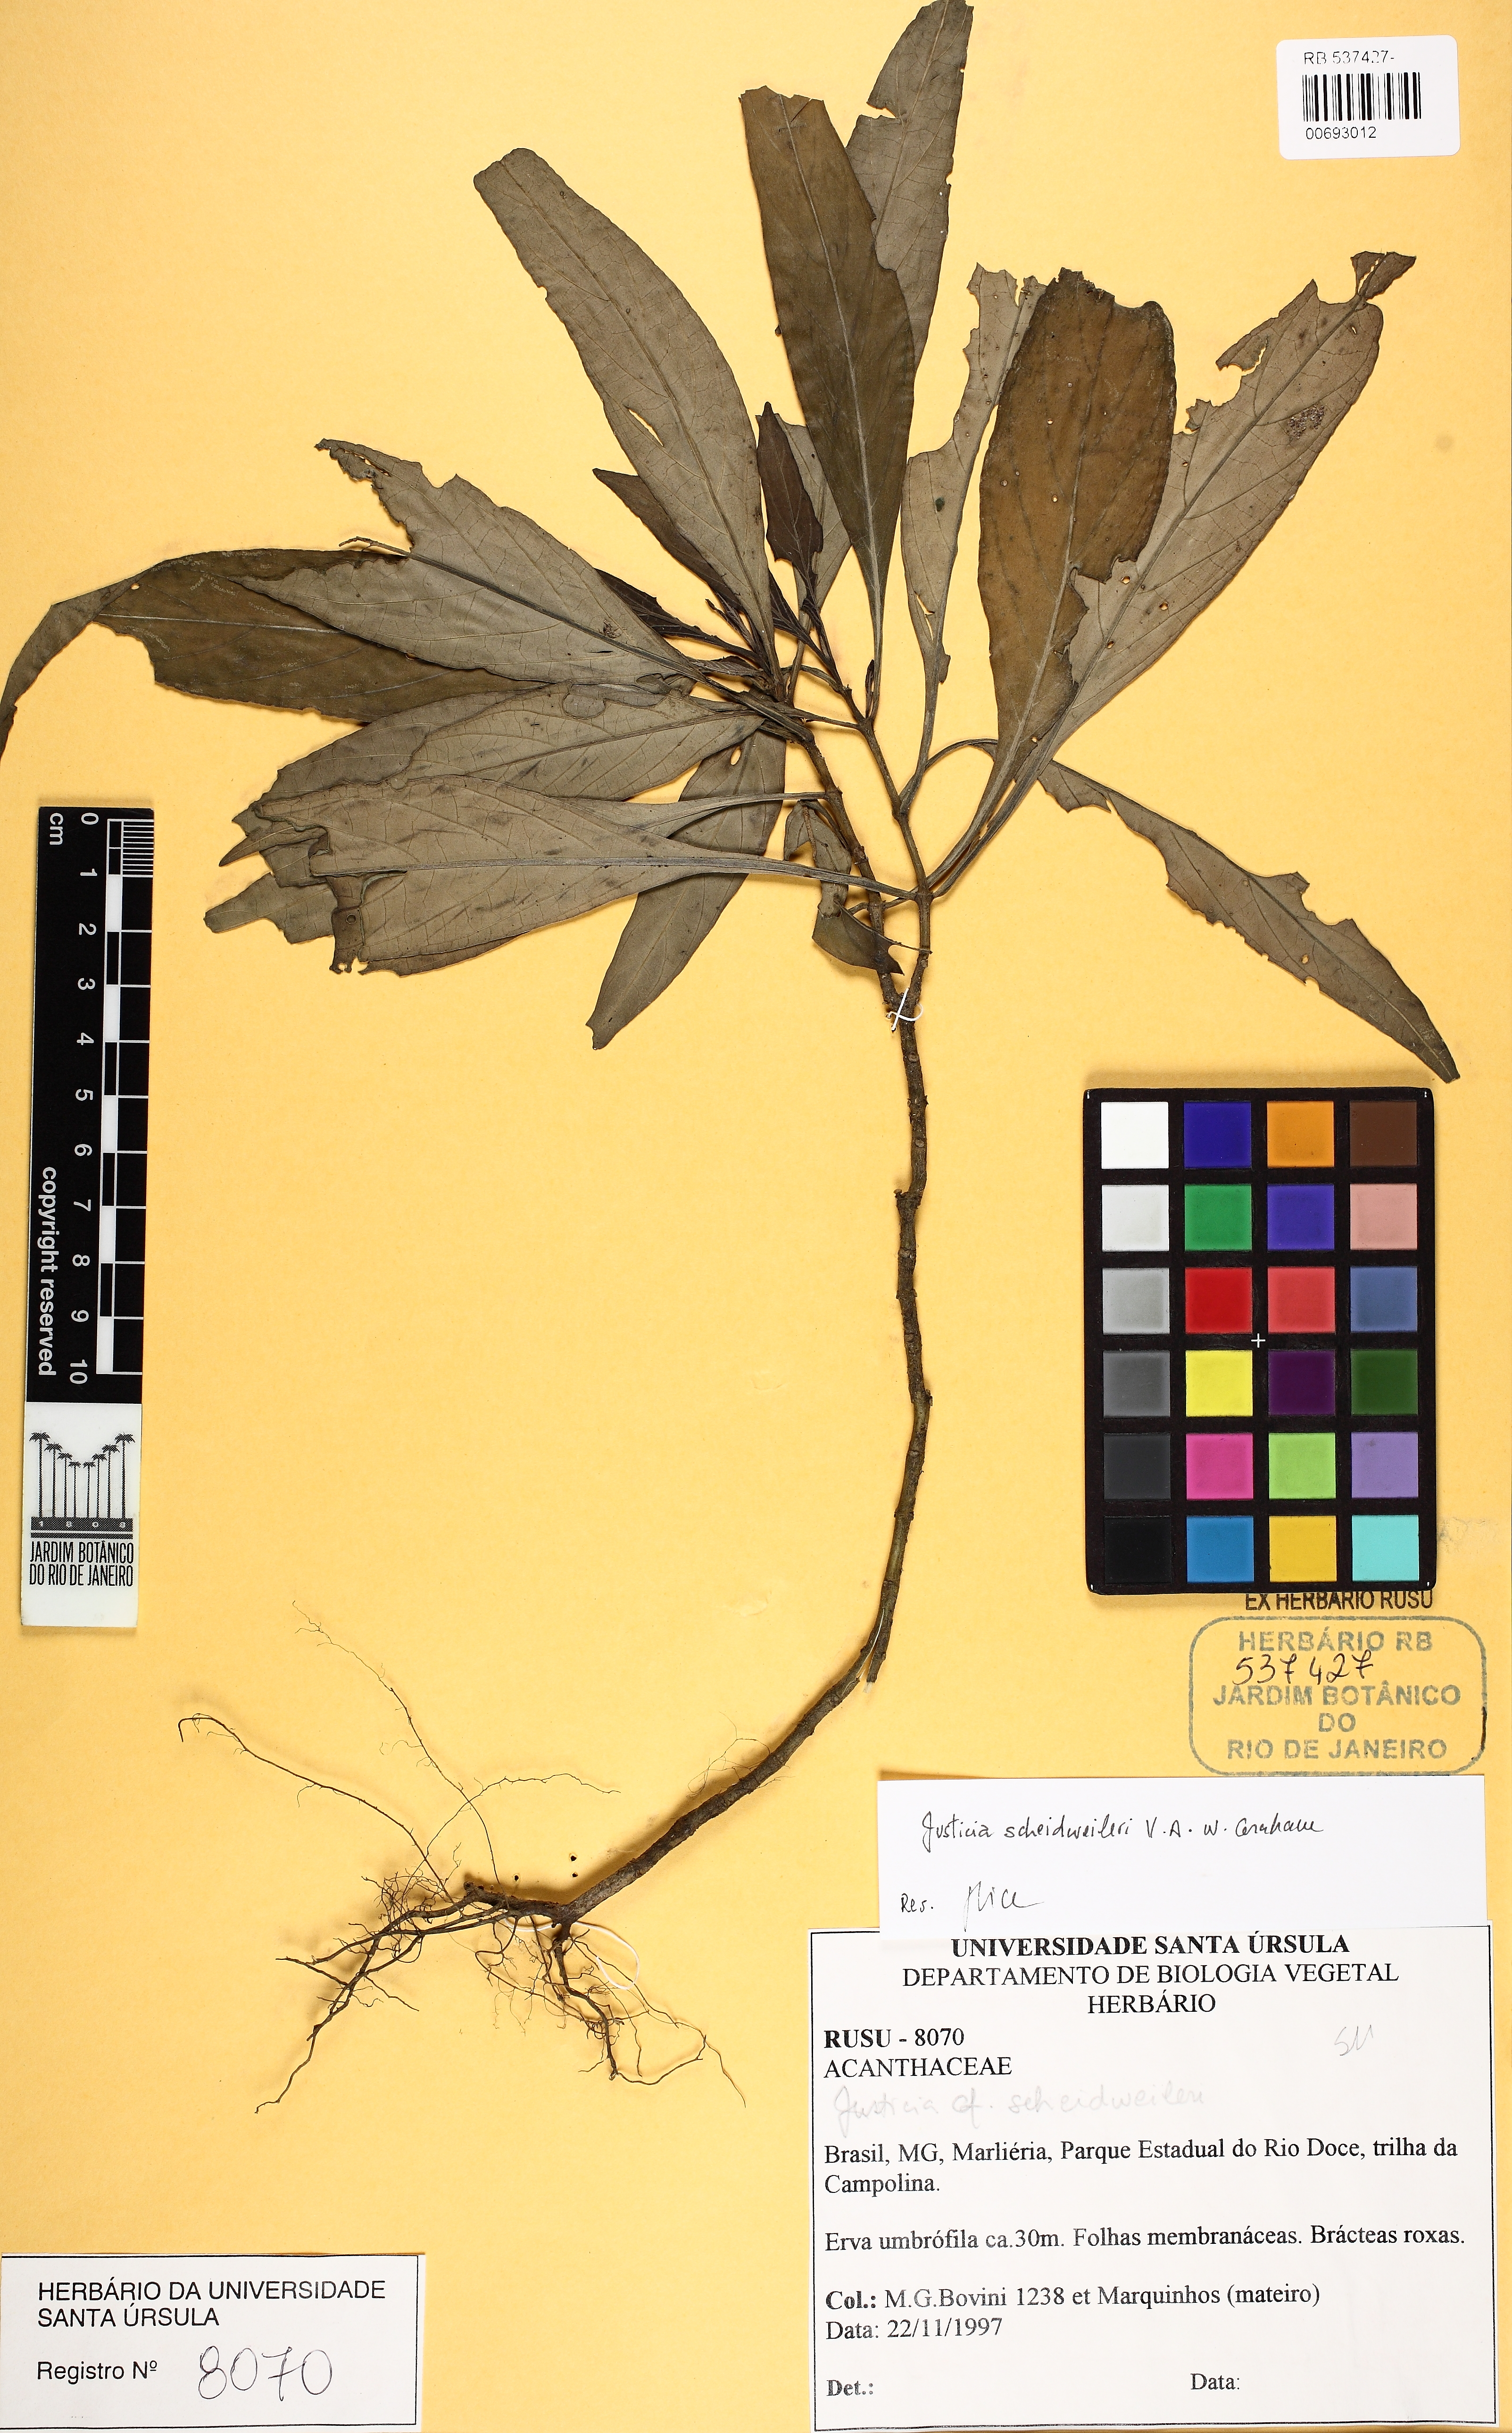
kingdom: Plantae
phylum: Tracheophyta
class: Magnoliopsida
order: Lamiales
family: Acanthaceae
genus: Justicia
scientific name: Justicia scheidweileri
